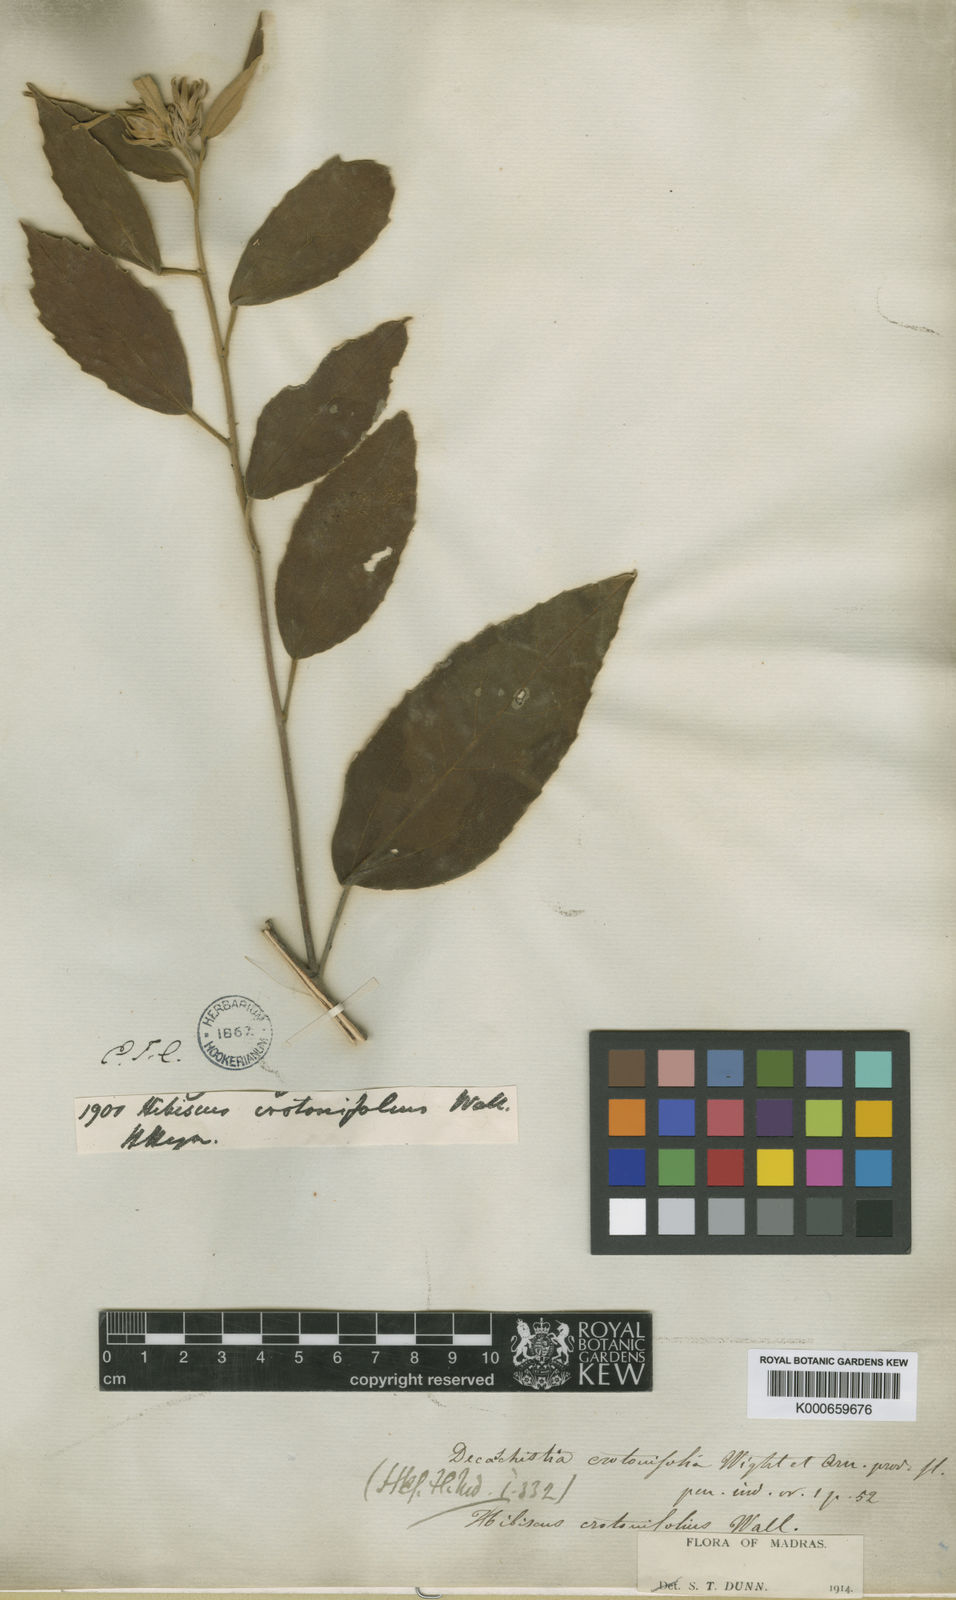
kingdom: Plantae
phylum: Tracheophyta
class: Magnoliopsida
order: Malvales
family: Malvaceae
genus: Decaschistia
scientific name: Decaschistia crotonifolia
